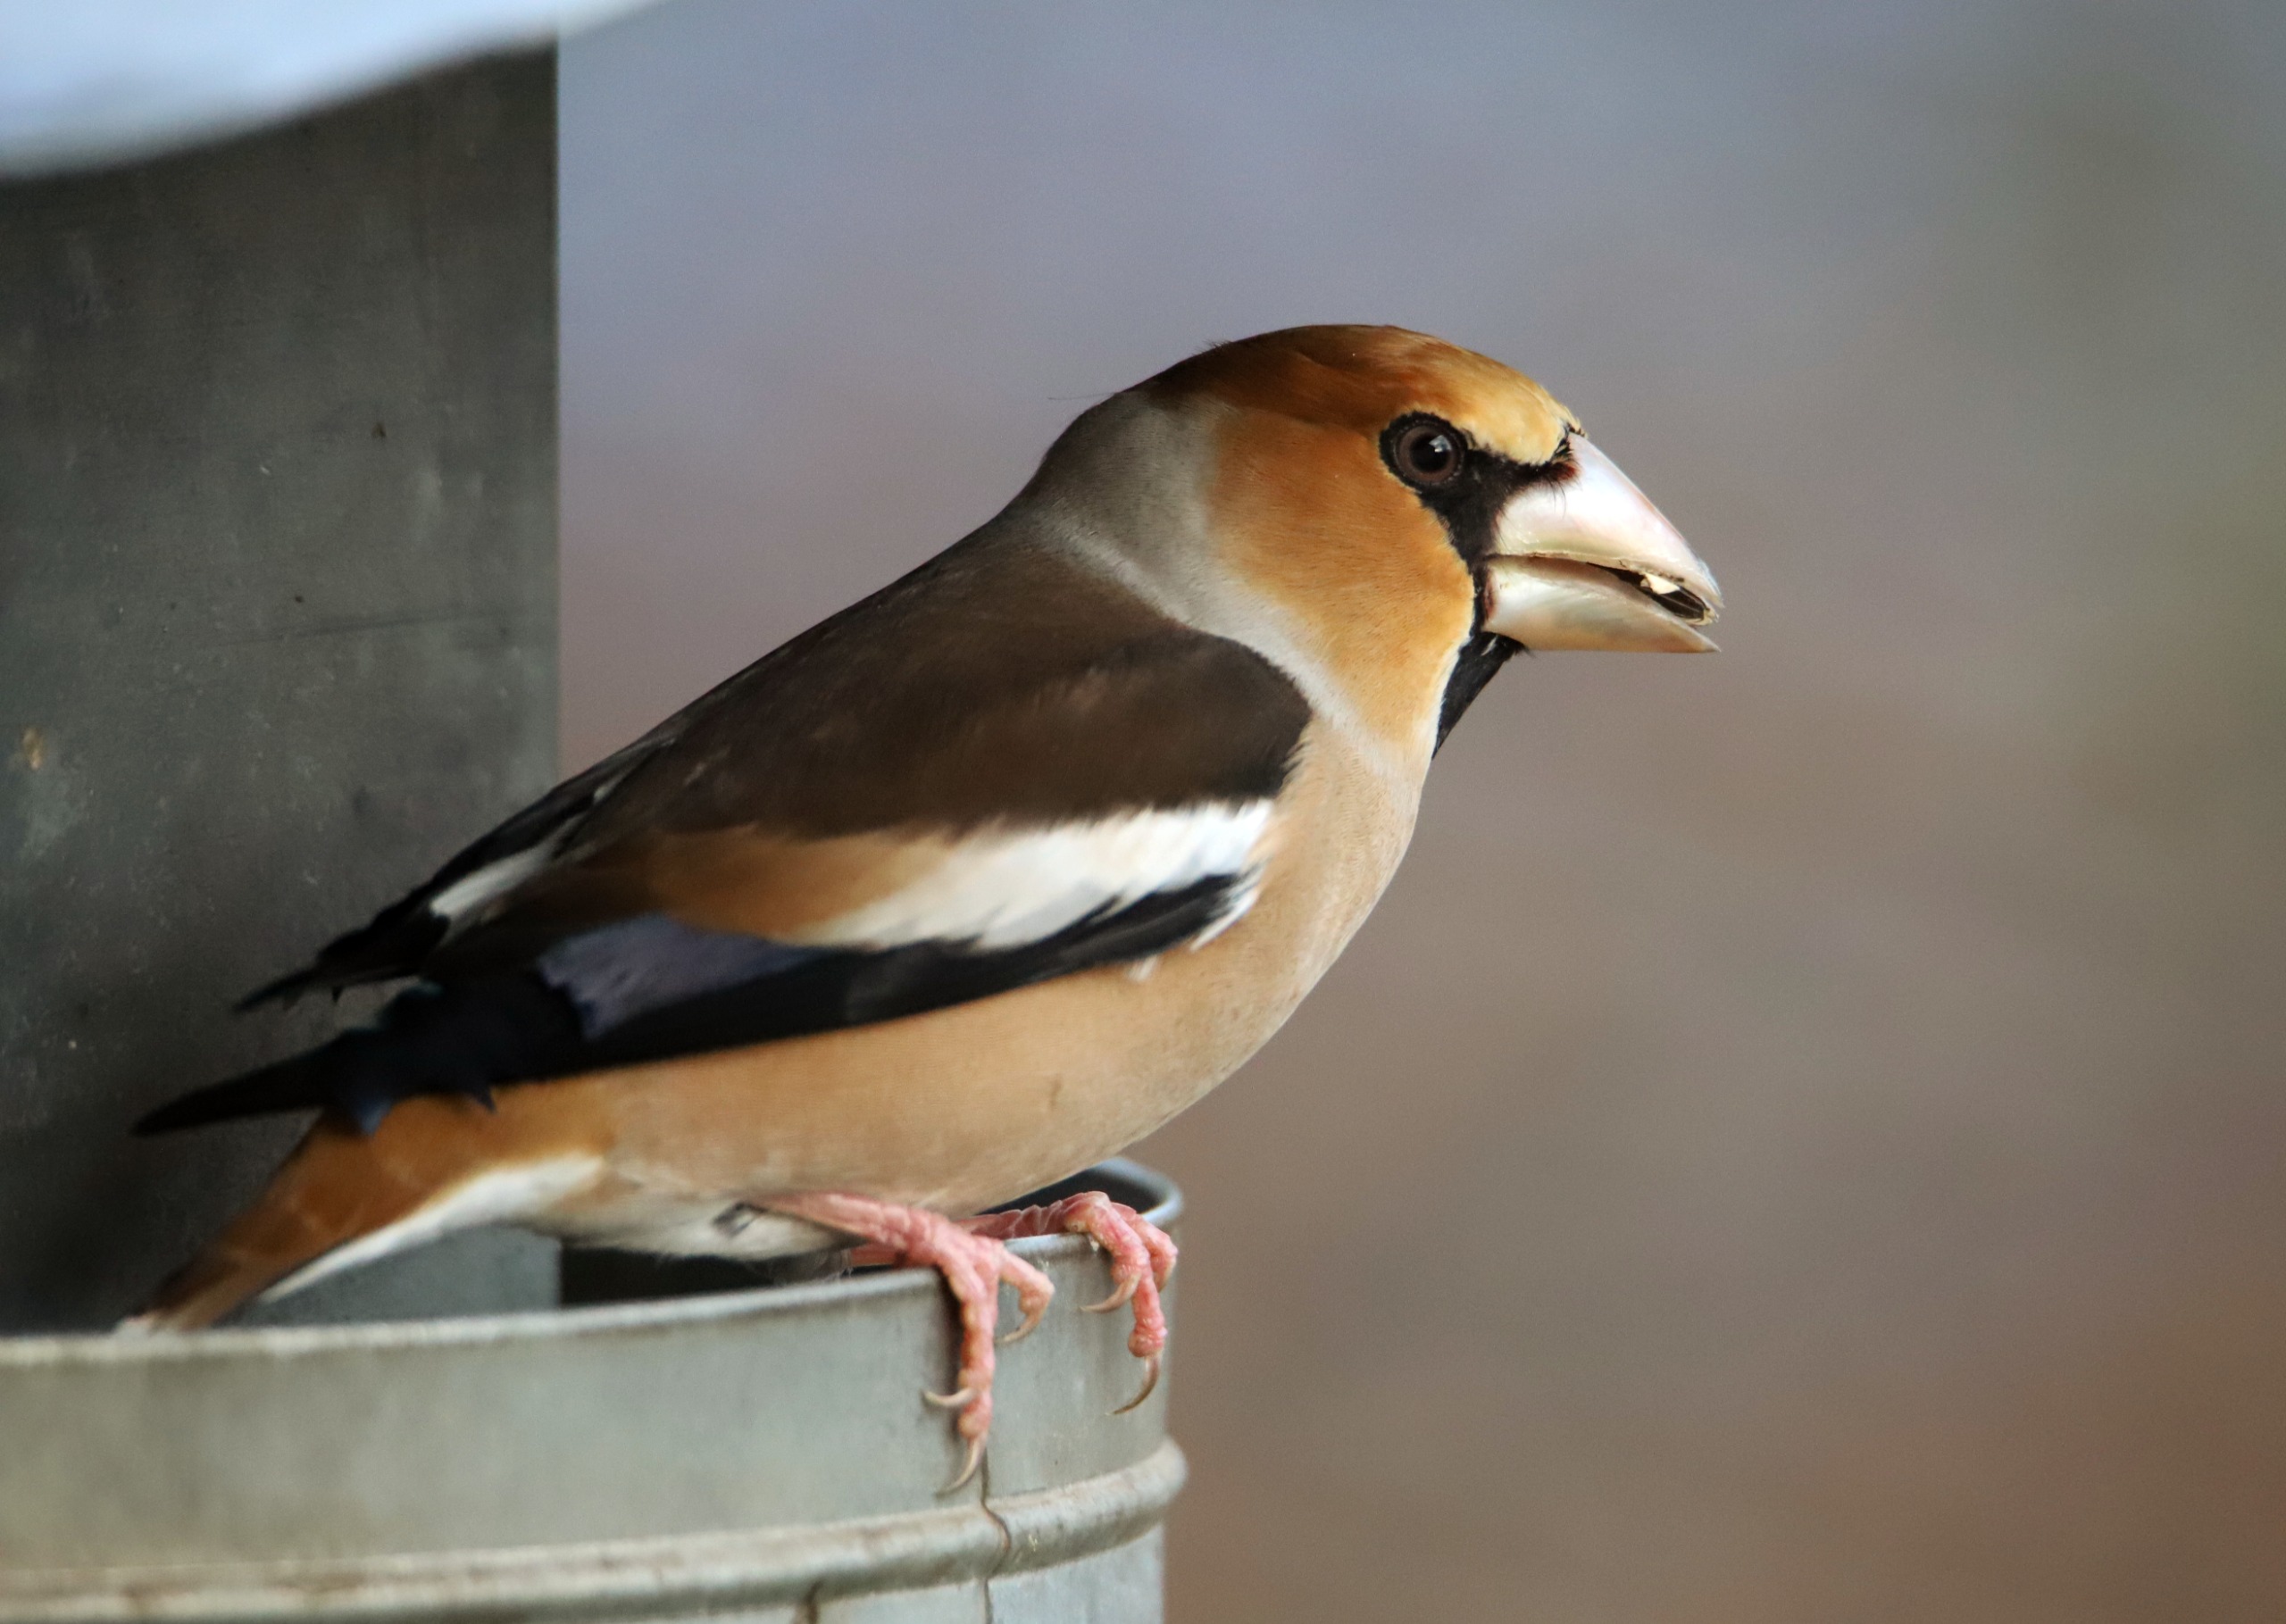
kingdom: Animalia
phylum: Chordata
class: Aves
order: Passeriformes
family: Fringillidae
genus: Coccothraustes
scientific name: Coccothraustes coccothraustes
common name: Kernebider
